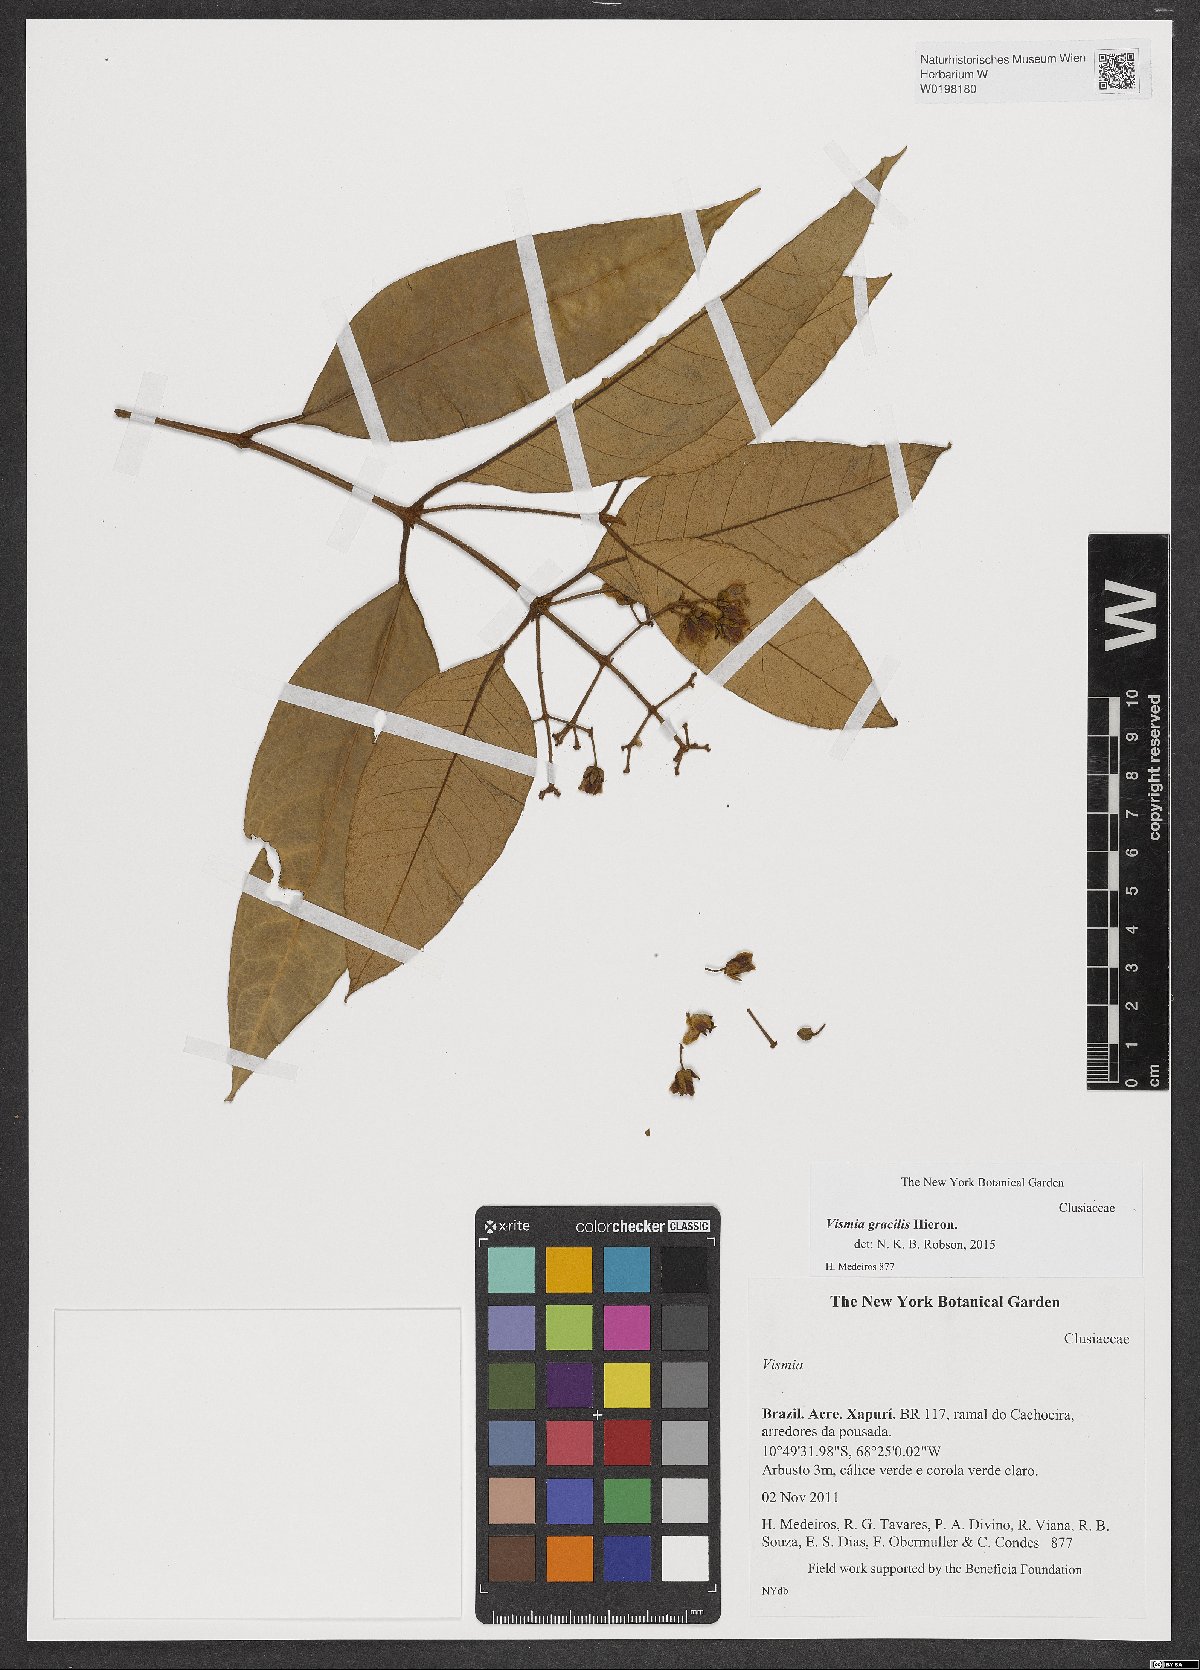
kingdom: Plantae
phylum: Tracheophyta
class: Magnoliopsida
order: Malpighiales
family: Hypericaceae
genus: Vismia
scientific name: Vismia gracilis
